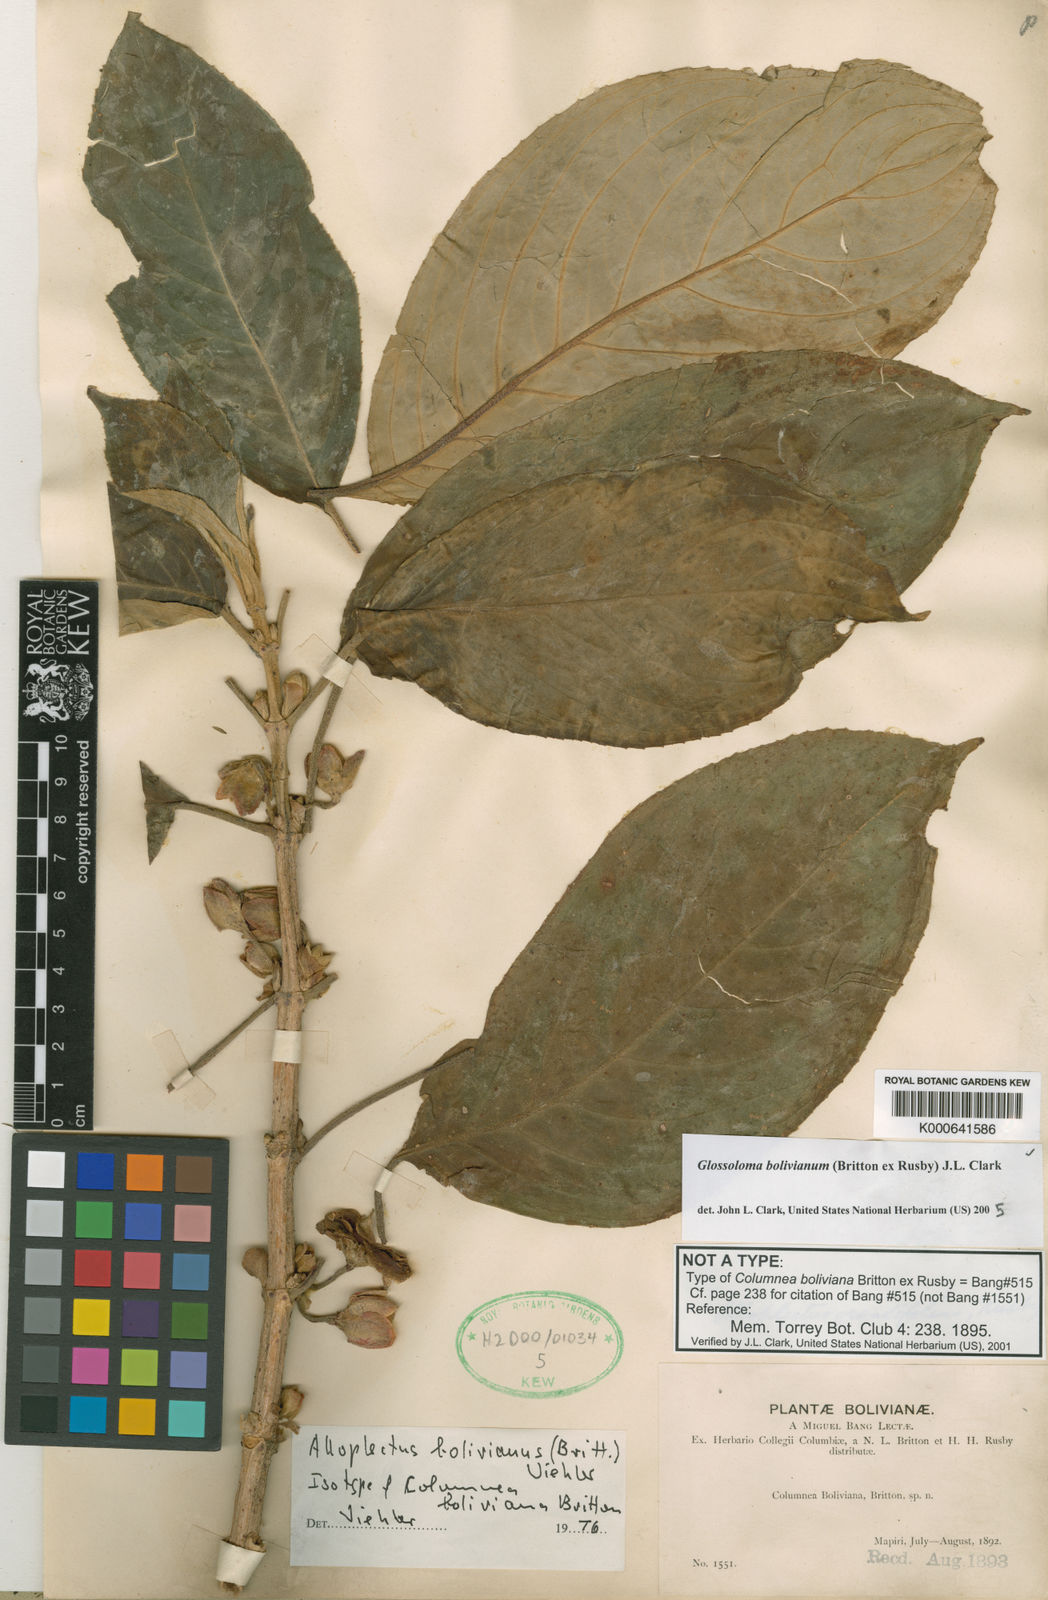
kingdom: Plantae
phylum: Tracheophyta
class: Magnoliopsida
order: Lamiales
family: Gesneriaceae
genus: Glossoloma
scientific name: Glossoloma bolivianum
